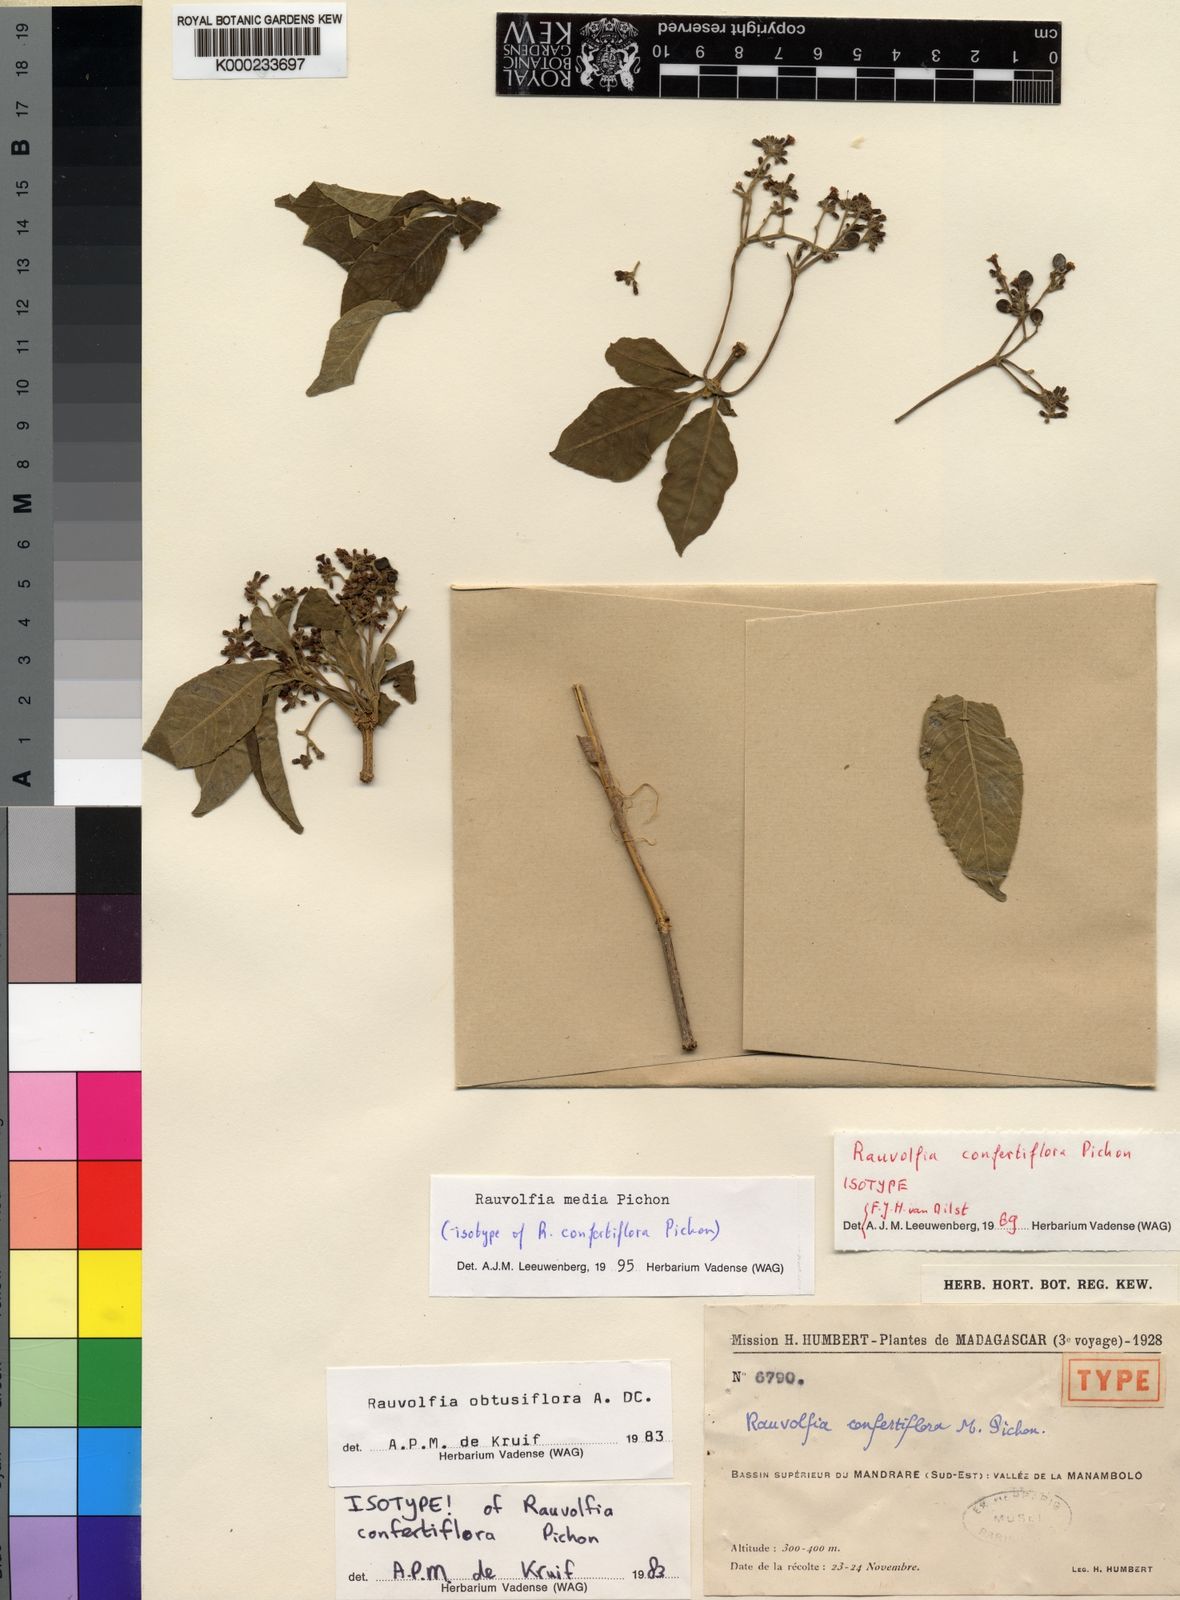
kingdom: Plantae
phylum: Tracheophyta
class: Magnoliopsida
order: Gentianales
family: Apocynaceae
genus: Rauvolfia
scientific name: Rauvolfia media
